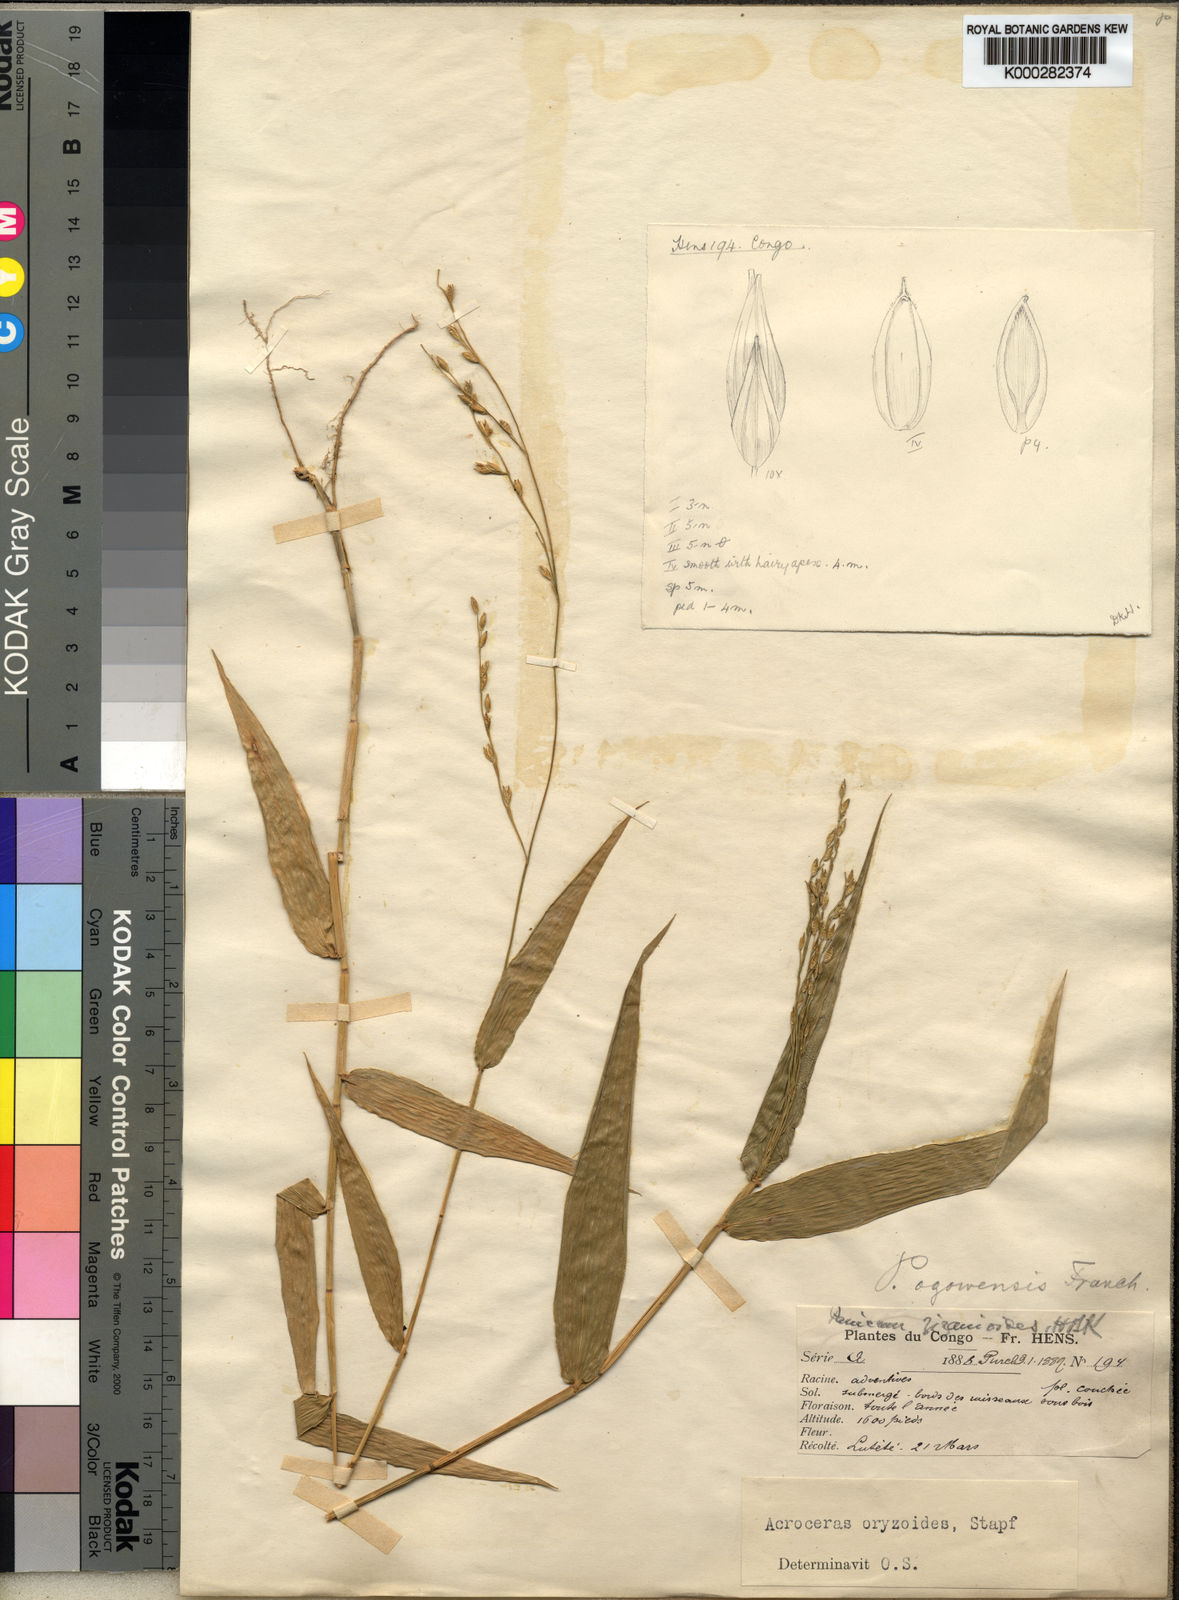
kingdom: Plantae
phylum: Tracheophyta
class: Liliopsida
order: Poales
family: Poaceae
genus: Acroceras
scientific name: Acroceras zizanioides
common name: Oat grass
